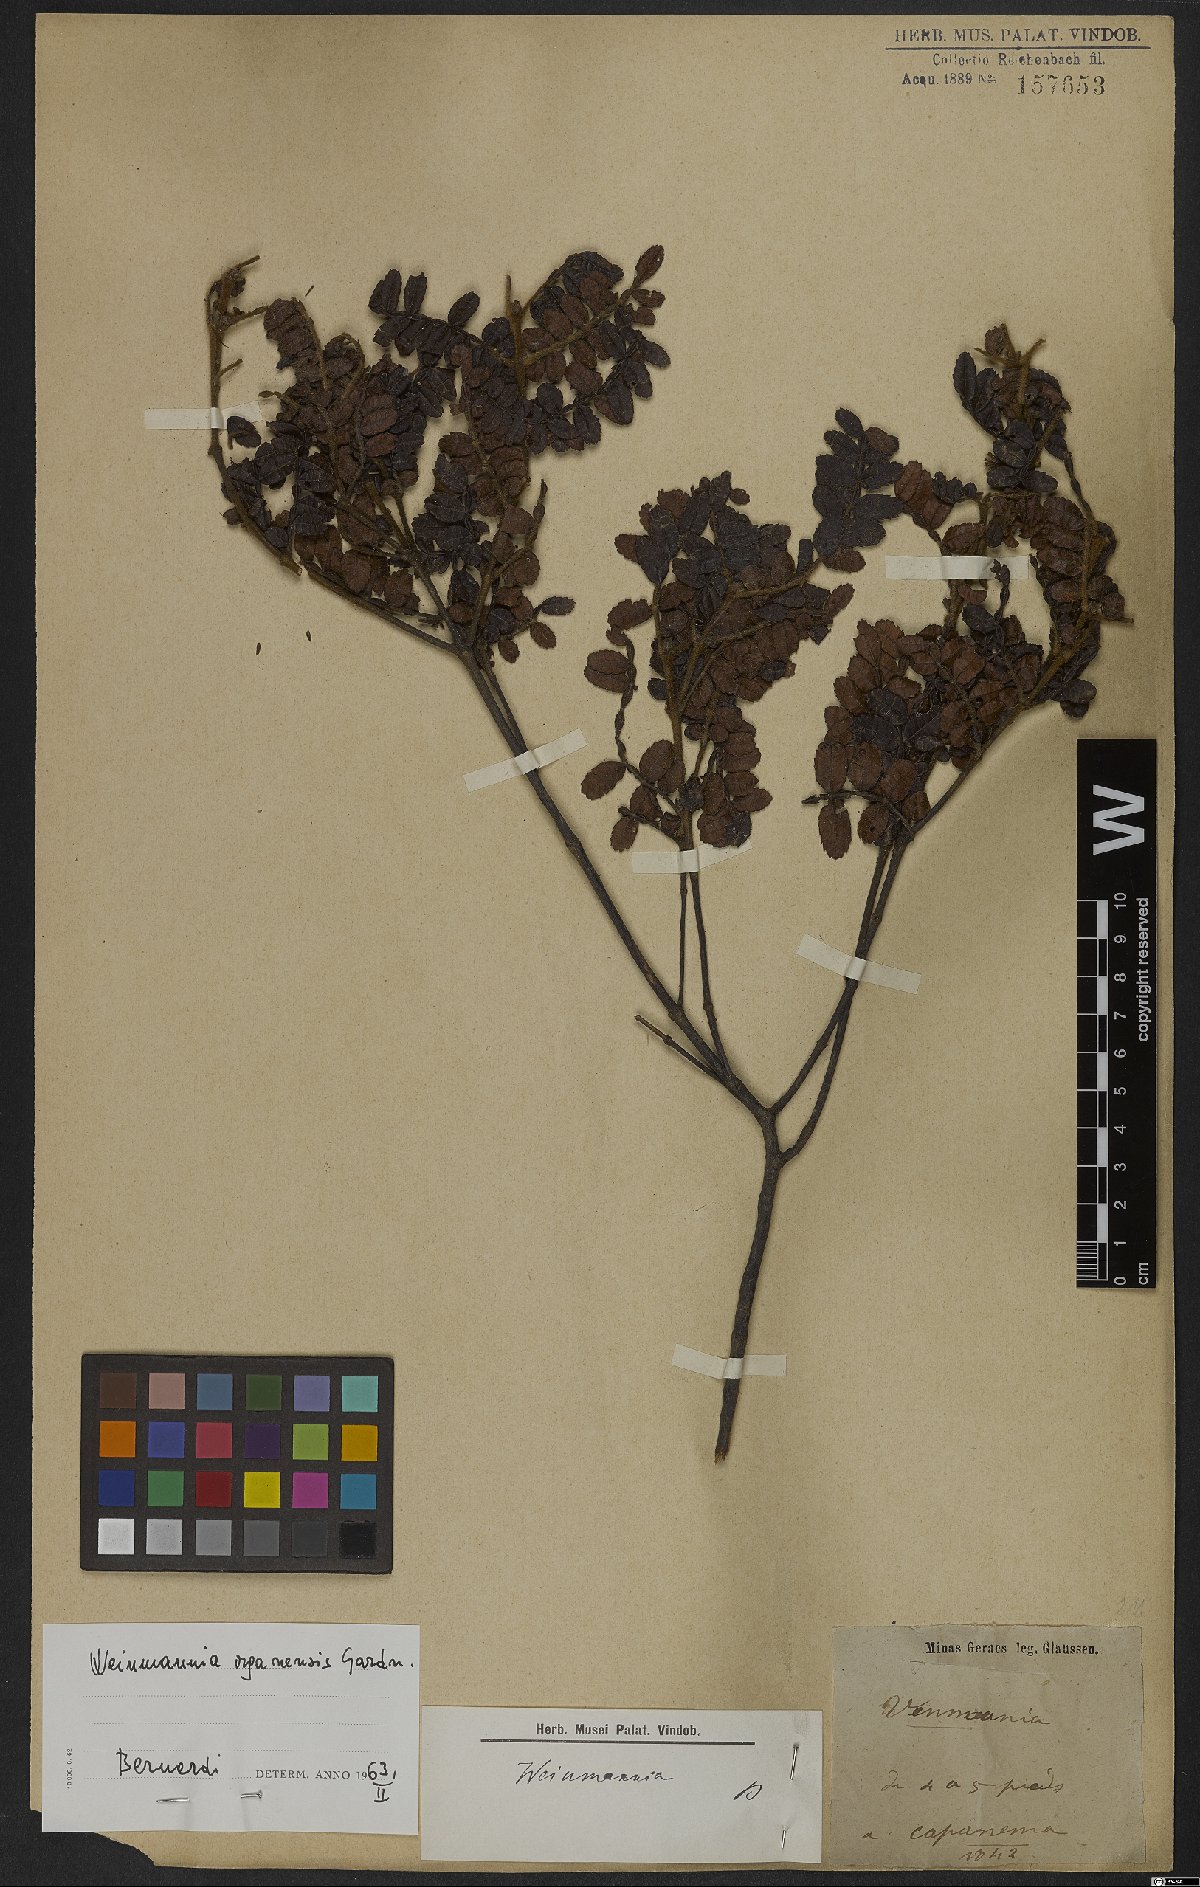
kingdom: Plantae
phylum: Tracheophyta
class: Magnoliopsida
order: Oxalidales
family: Cunoniaceae
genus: Weinmannia
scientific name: Weinmannia organensis
